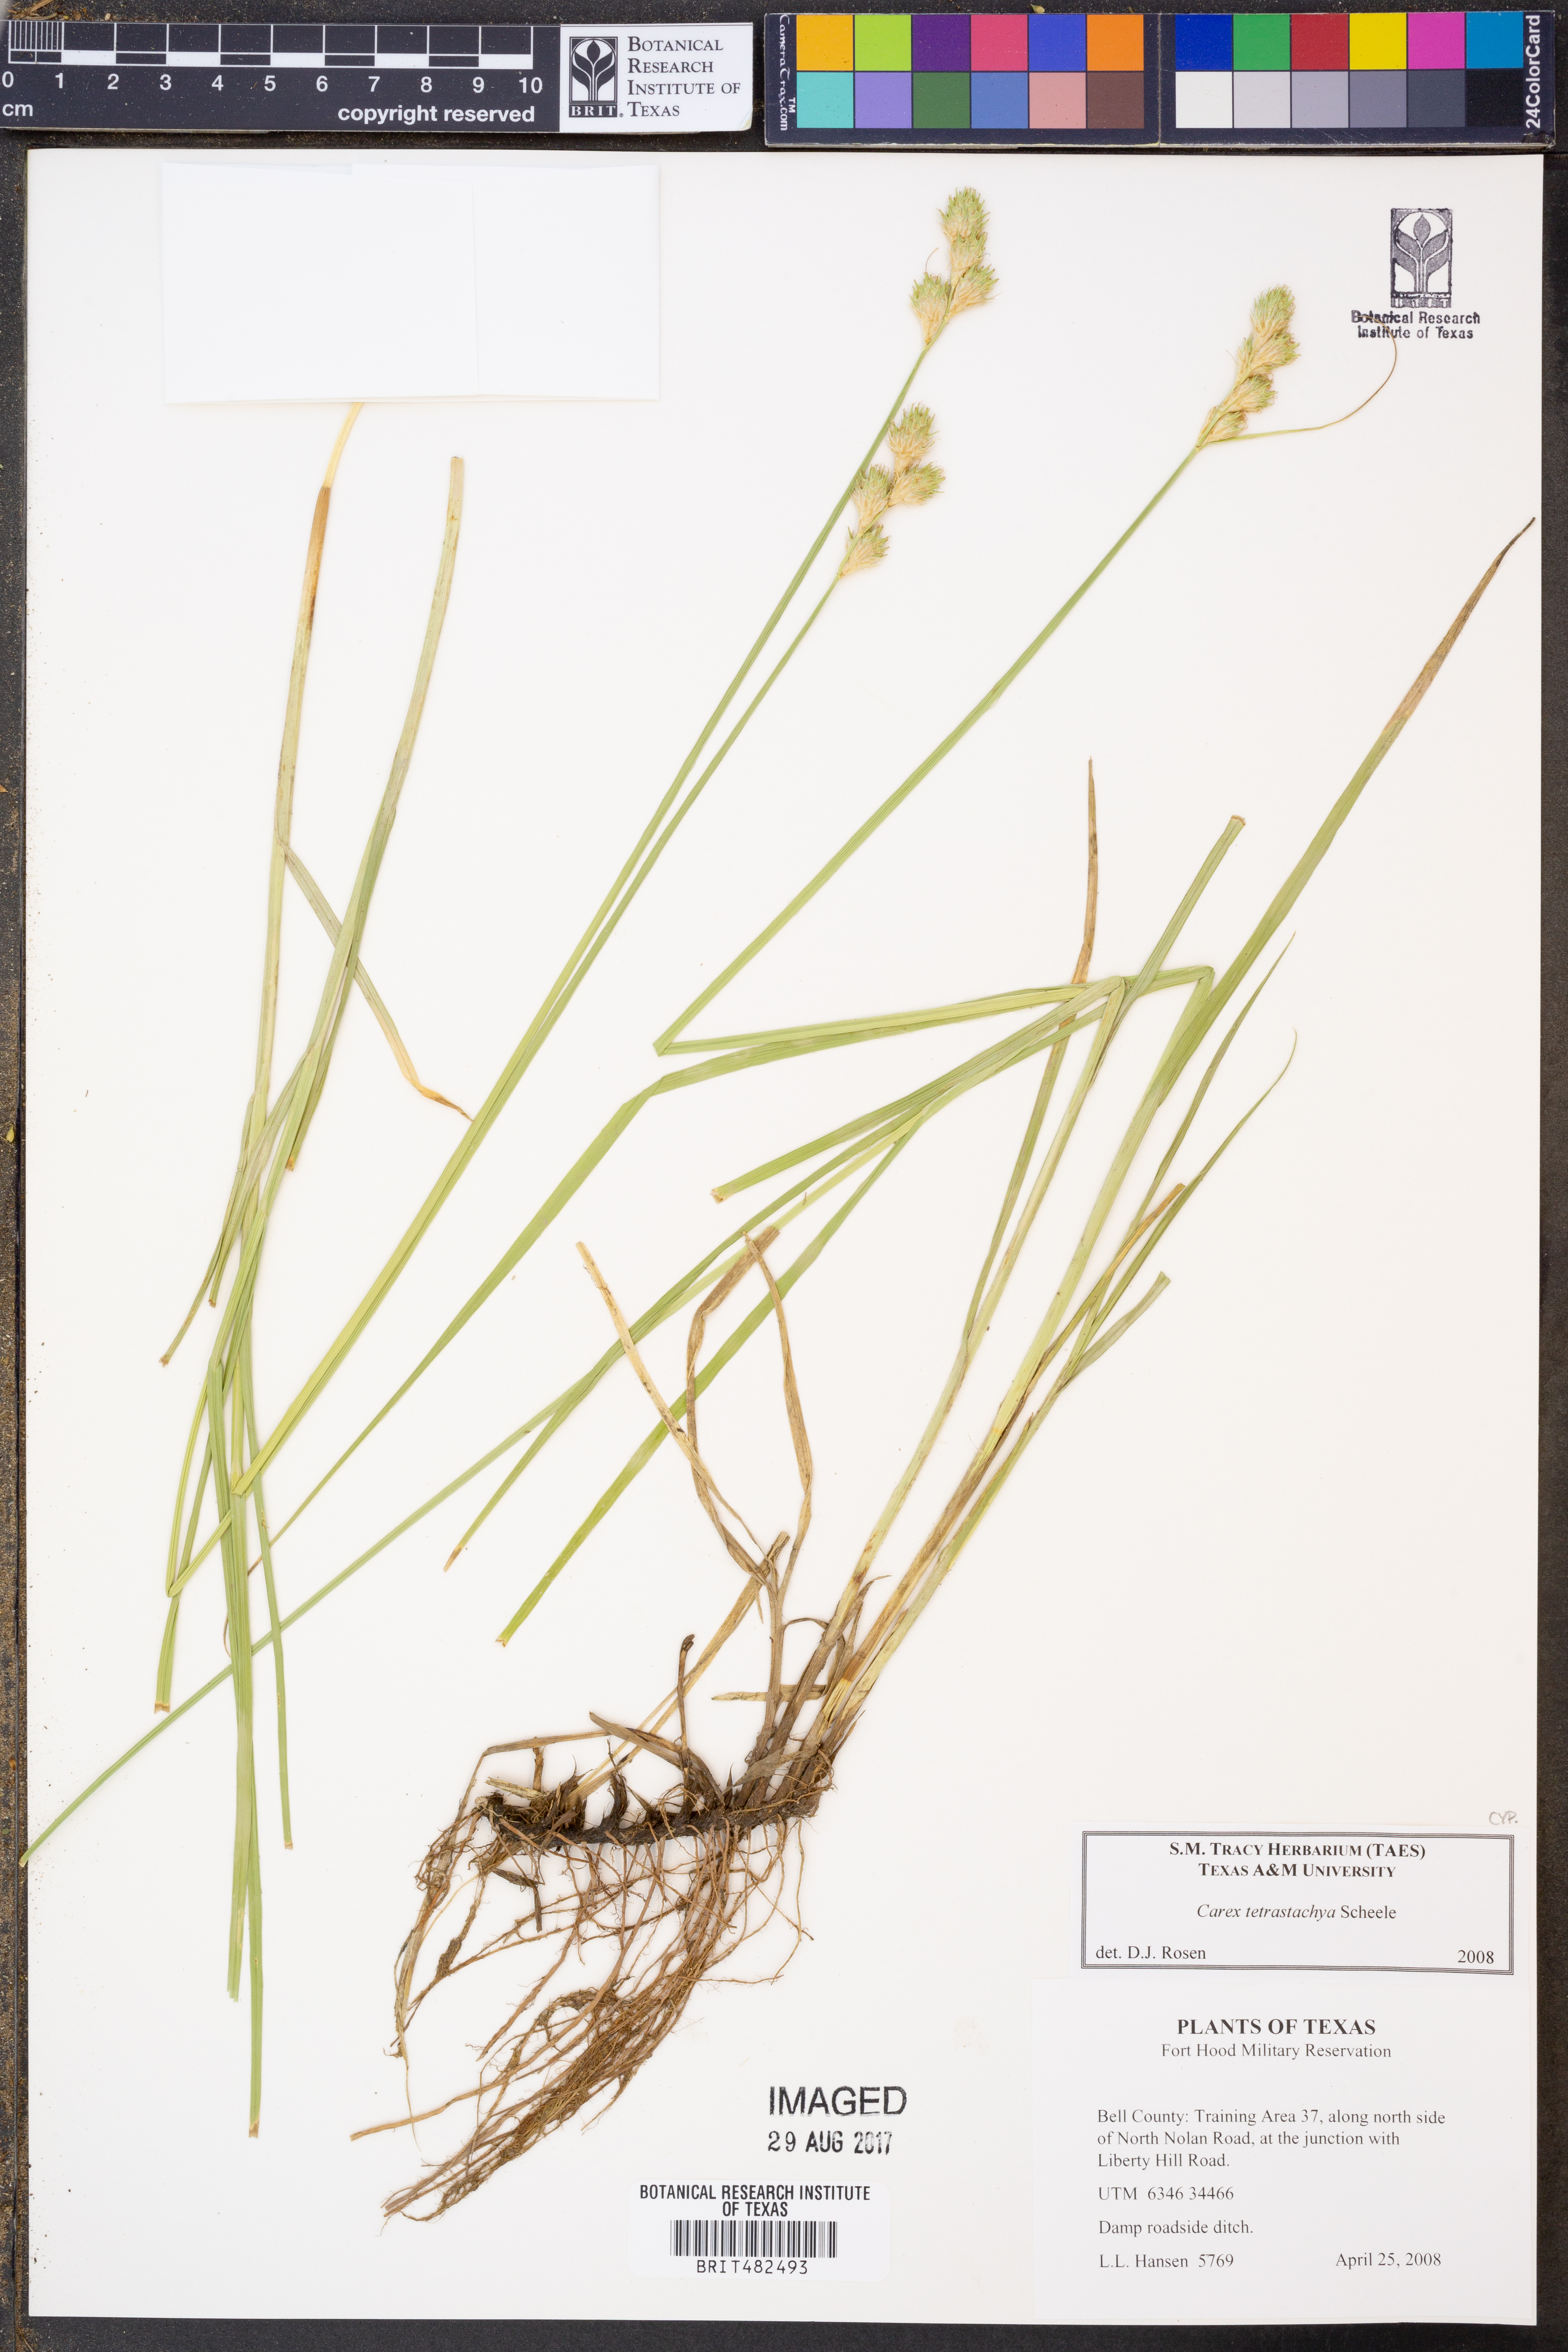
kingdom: Plantae
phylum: Tracheophyta
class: Liliopsida
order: Poales
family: Cyperaceae
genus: Carex
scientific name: Carex tetrastachya
